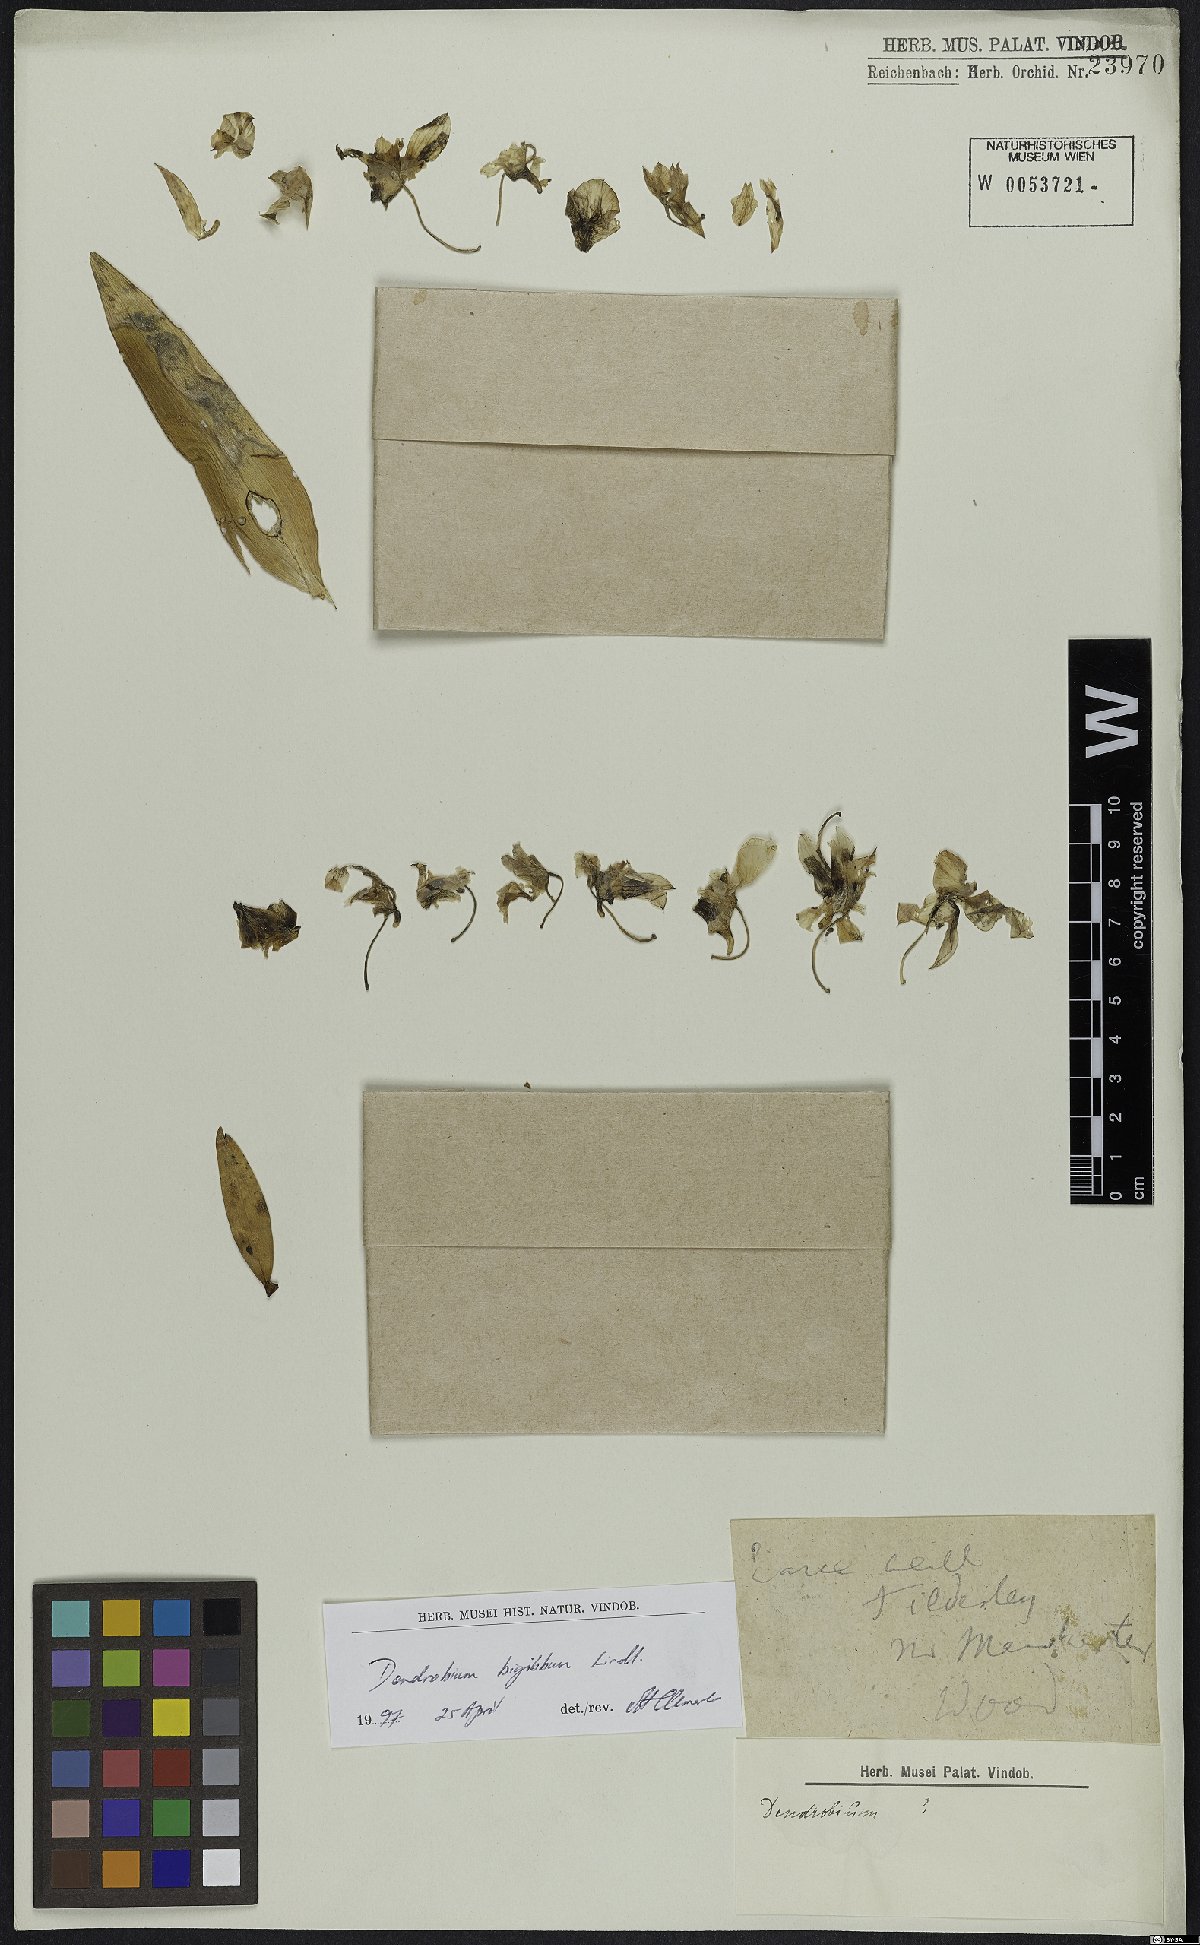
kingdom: Plantae
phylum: Tracheophyta
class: Liliopsida
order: Asparagales
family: Orchidaceae
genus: Dendrobium
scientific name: Dendrobium bigibbum
